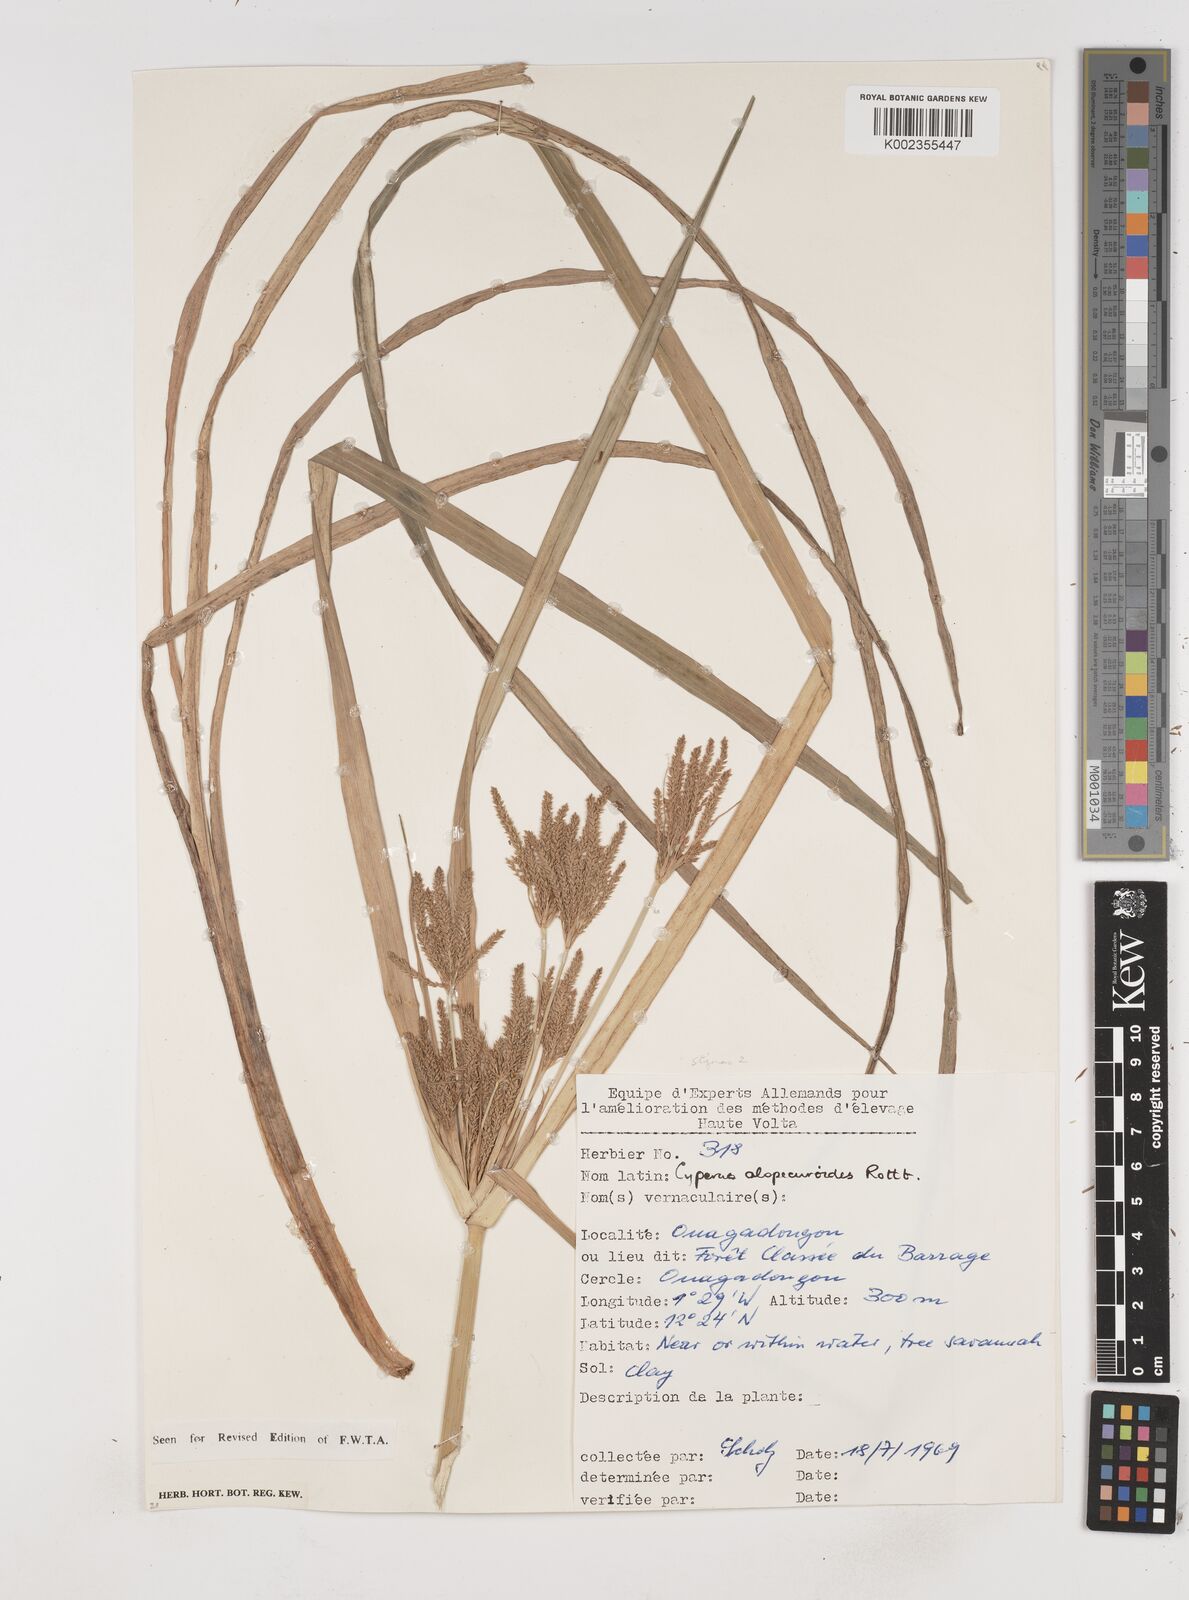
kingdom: Plantae
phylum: Tracheophyta
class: Liliopsida
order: Poales
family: Cyperaceae
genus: Cyperus
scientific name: Cyperus alopecuroides
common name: Foxtail flatsedge
